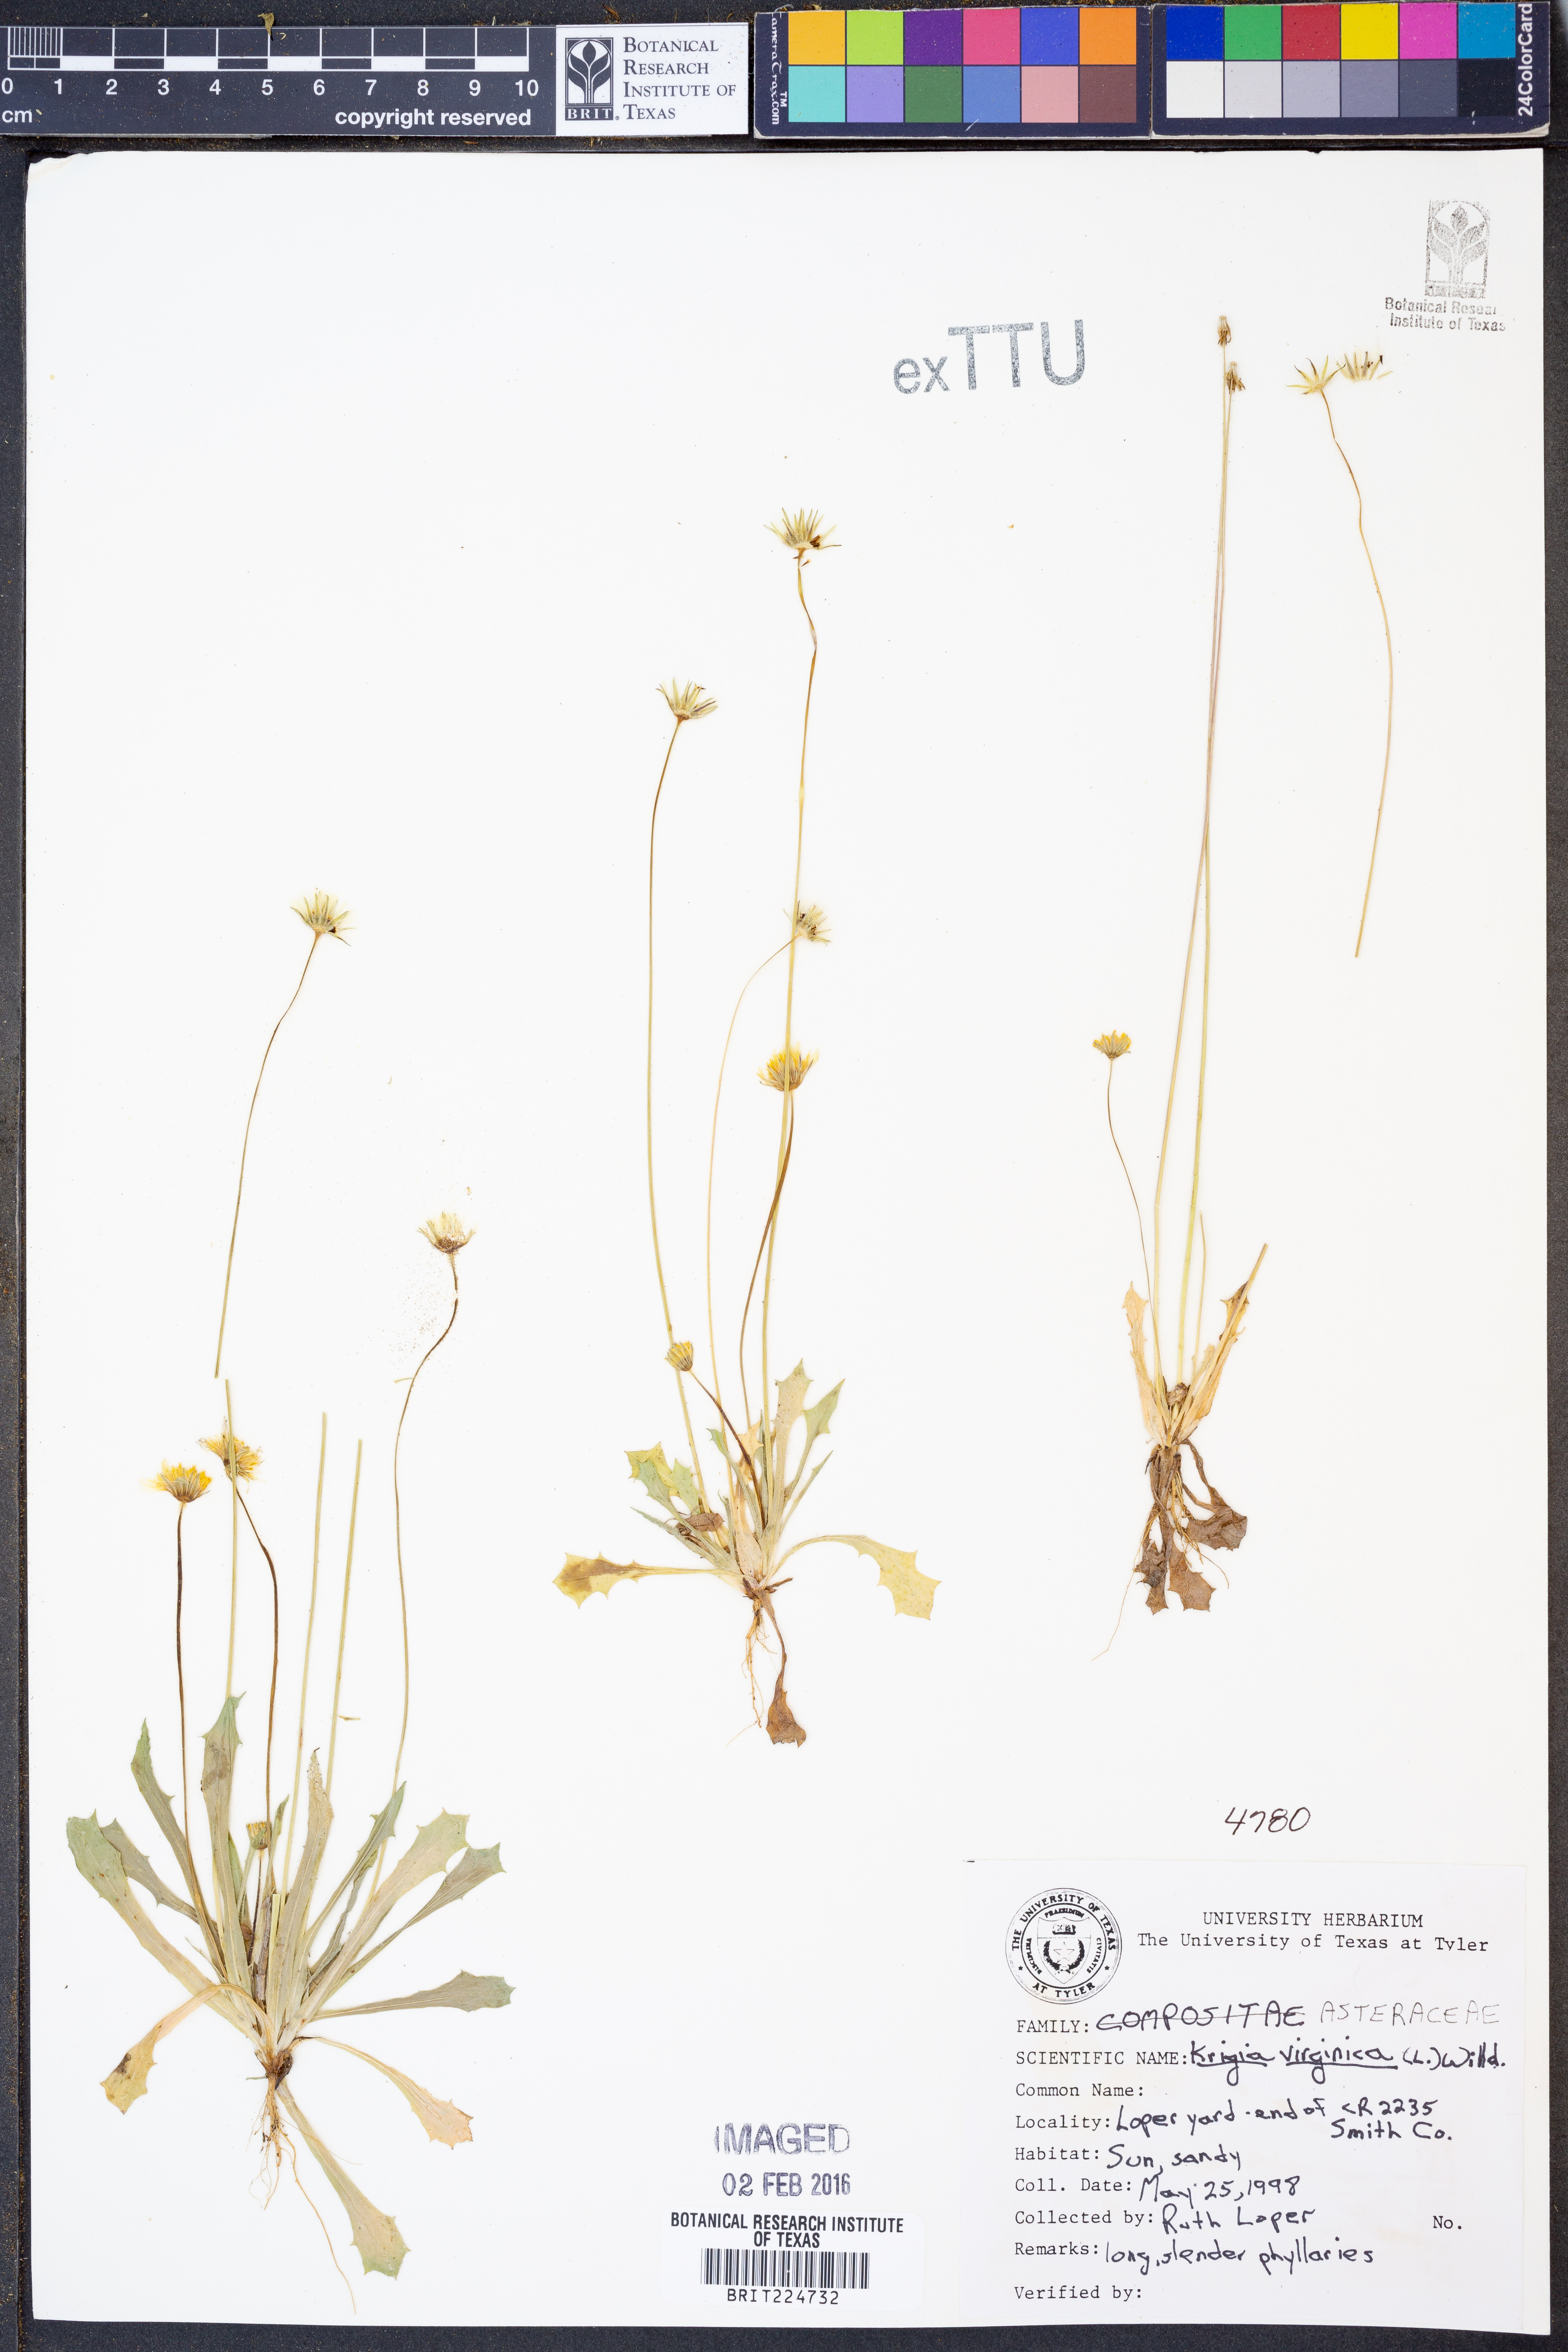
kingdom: Plantae
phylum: Tracheophyta
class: Magnoliopsida
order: Asterales
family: Asteraceae
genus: Krigia
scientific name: Krigia virginica
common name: Virginia dwarf-dandelion
